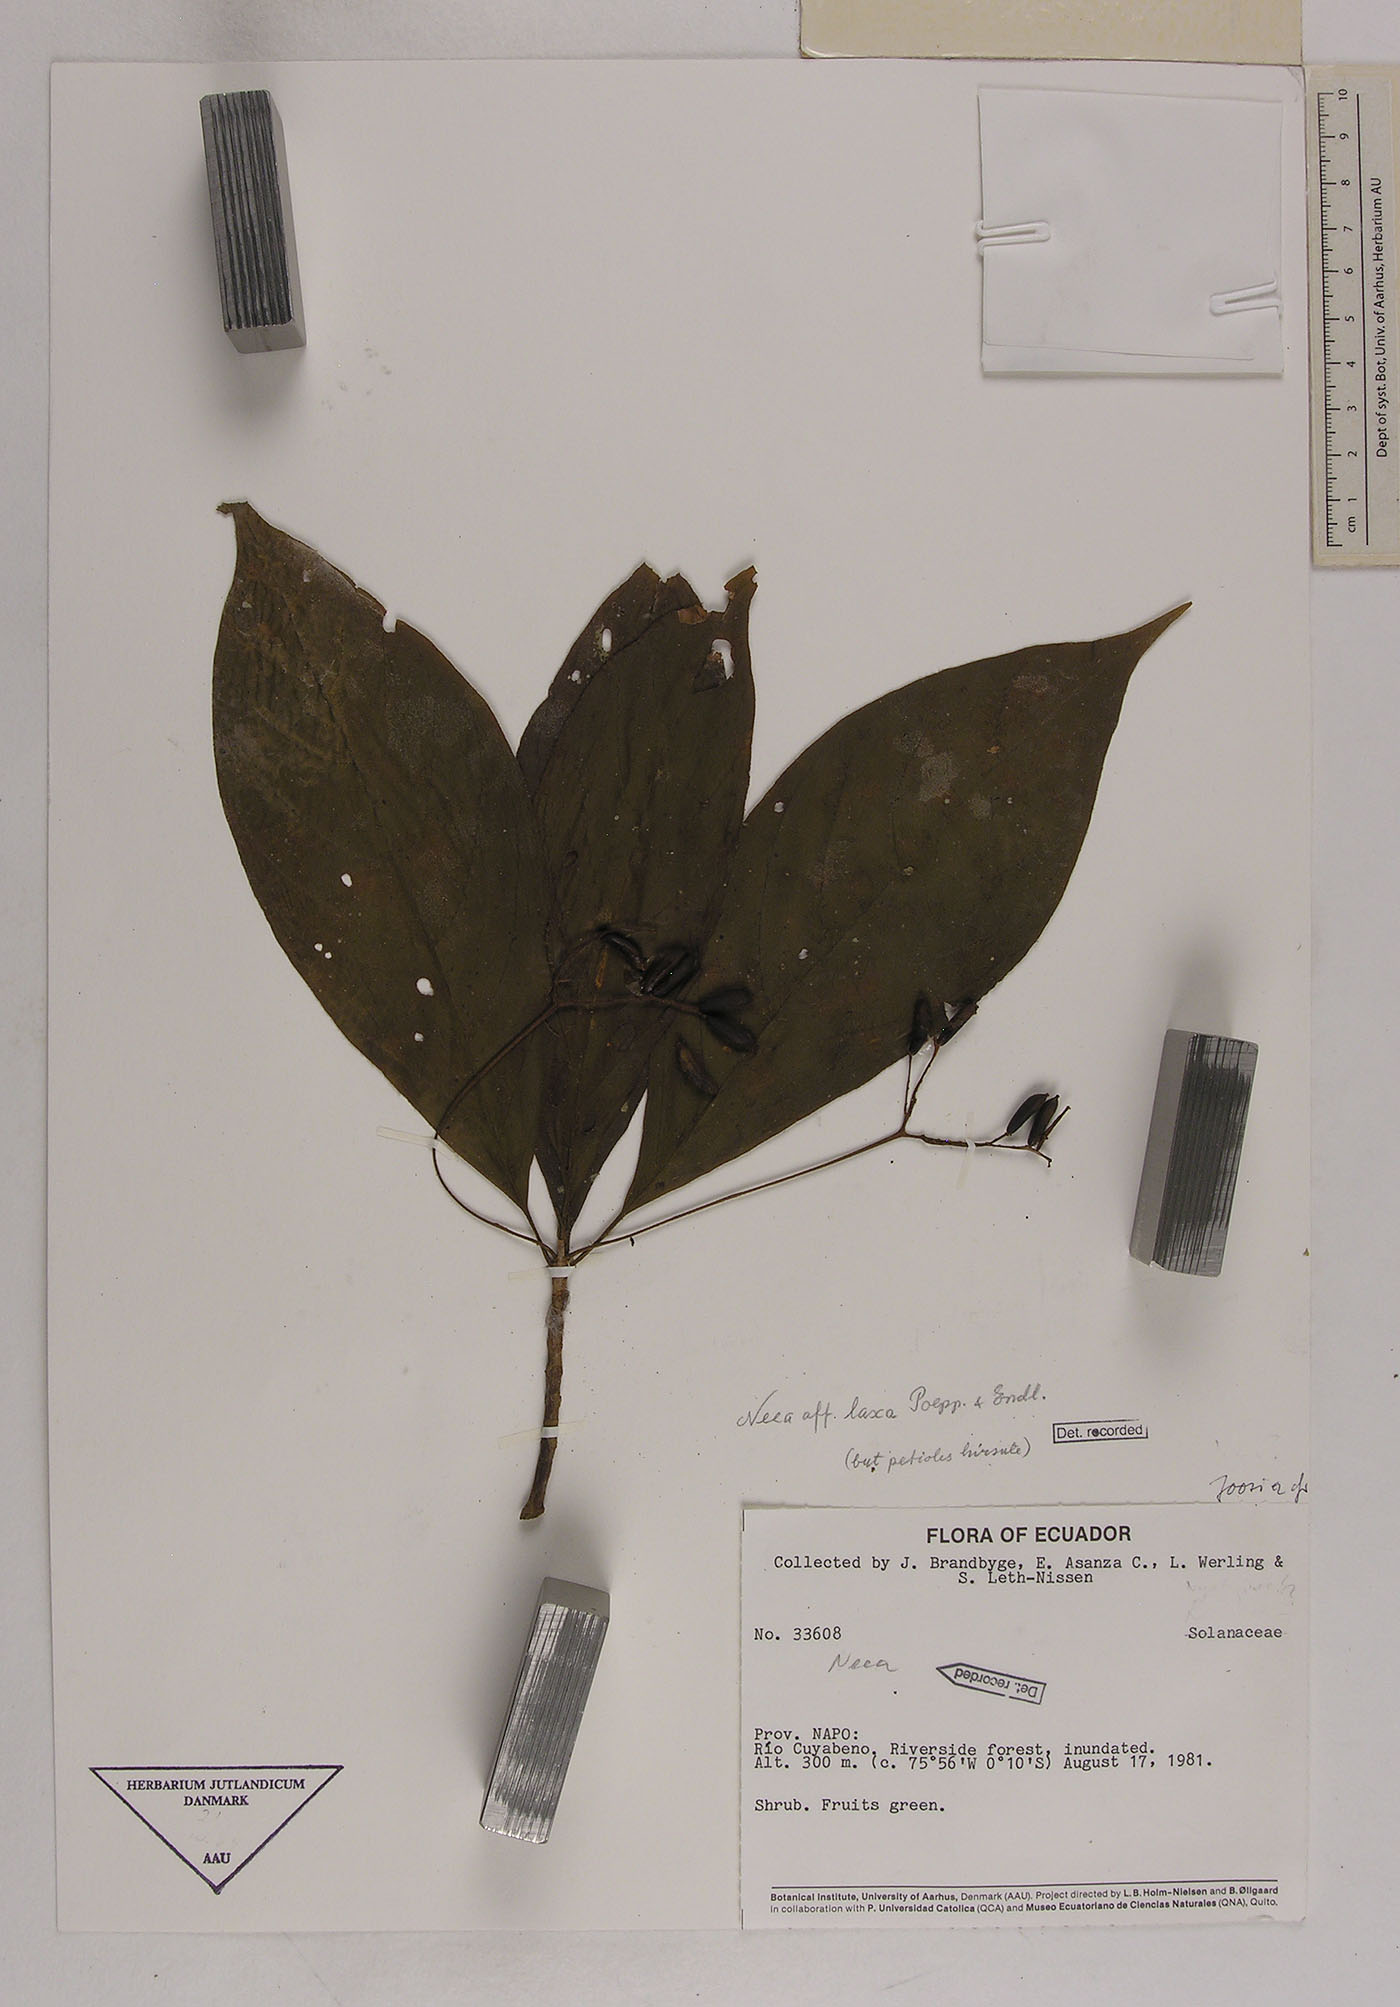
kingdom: Plantae
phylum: Tracheophyta
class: Magnoliopsida
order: Caryophyllales
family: Nyctaginaceae
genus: Neea
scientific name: Neea laxa
